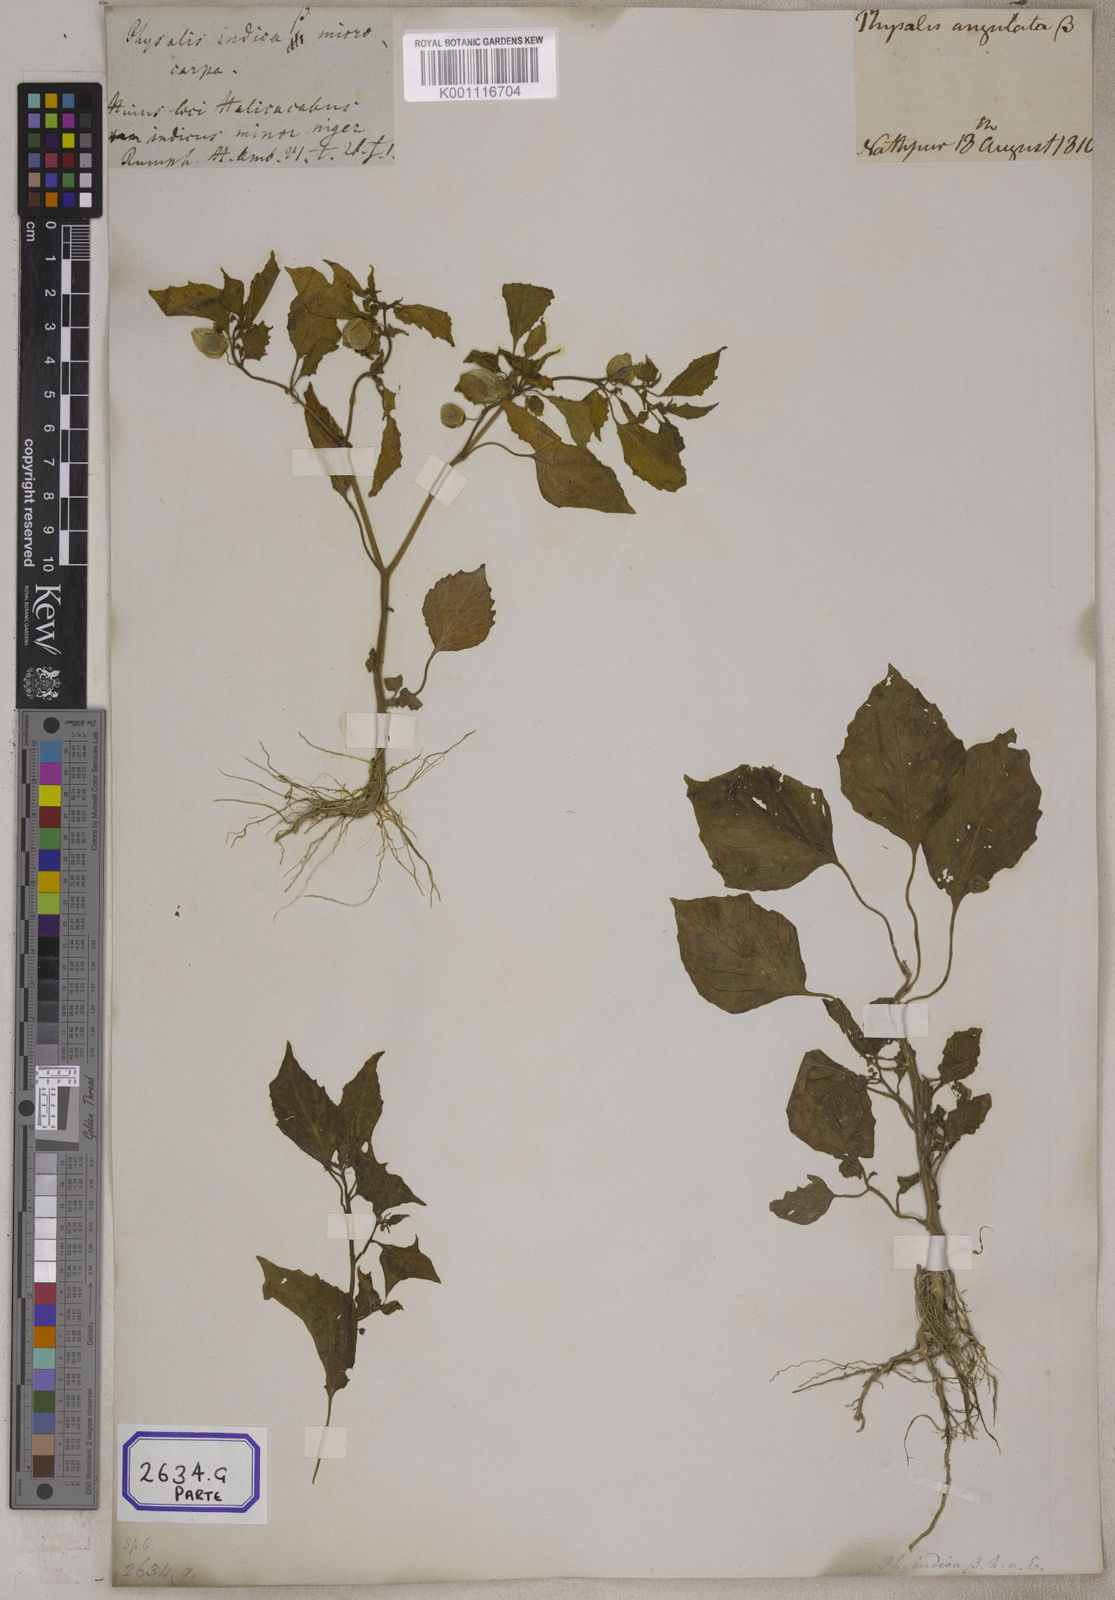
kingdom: Plantae
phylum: Tracheophyta
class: Magnoliopsida
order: Solanales
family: Solanaceae
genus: Physalis
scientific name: Physalis peruviana
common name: Cape-gooseberry
